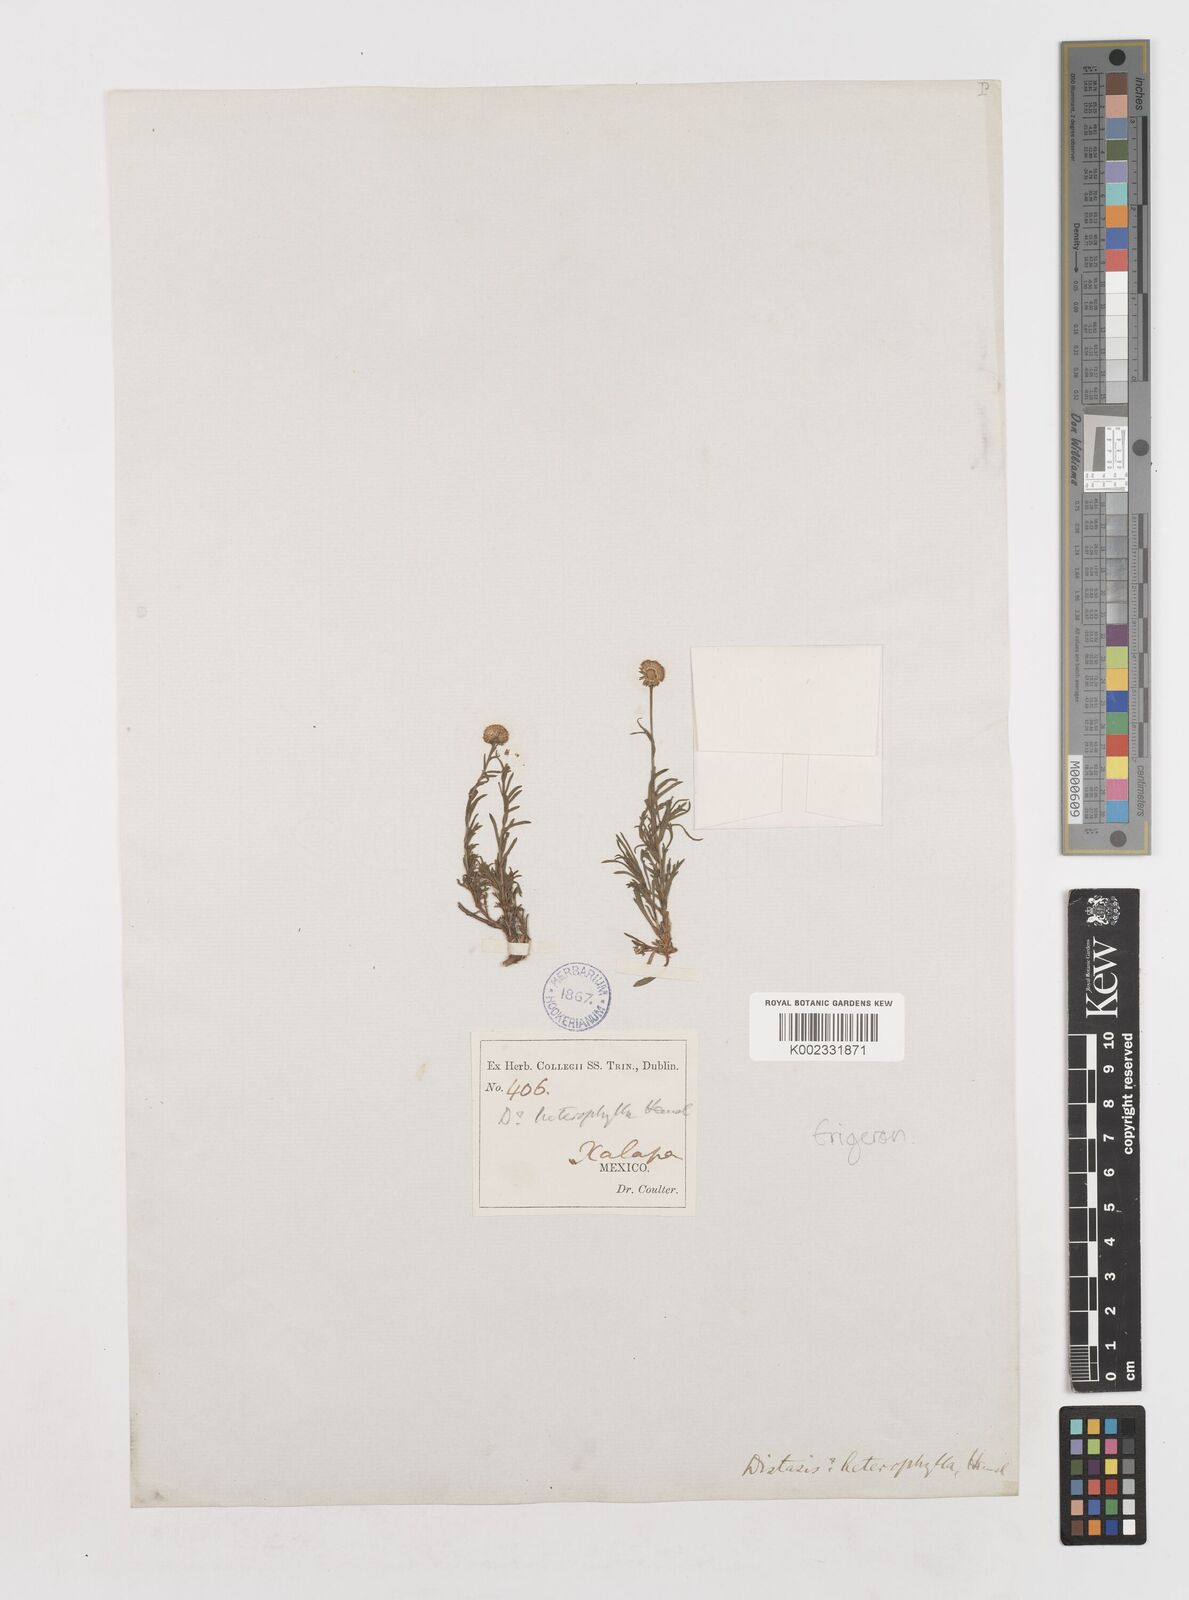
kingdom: Plantae
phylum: Tracheophyta
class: Magnoliopsida
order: Asterales
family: Asteraceae
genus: Erigeron
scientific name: Erigeron
